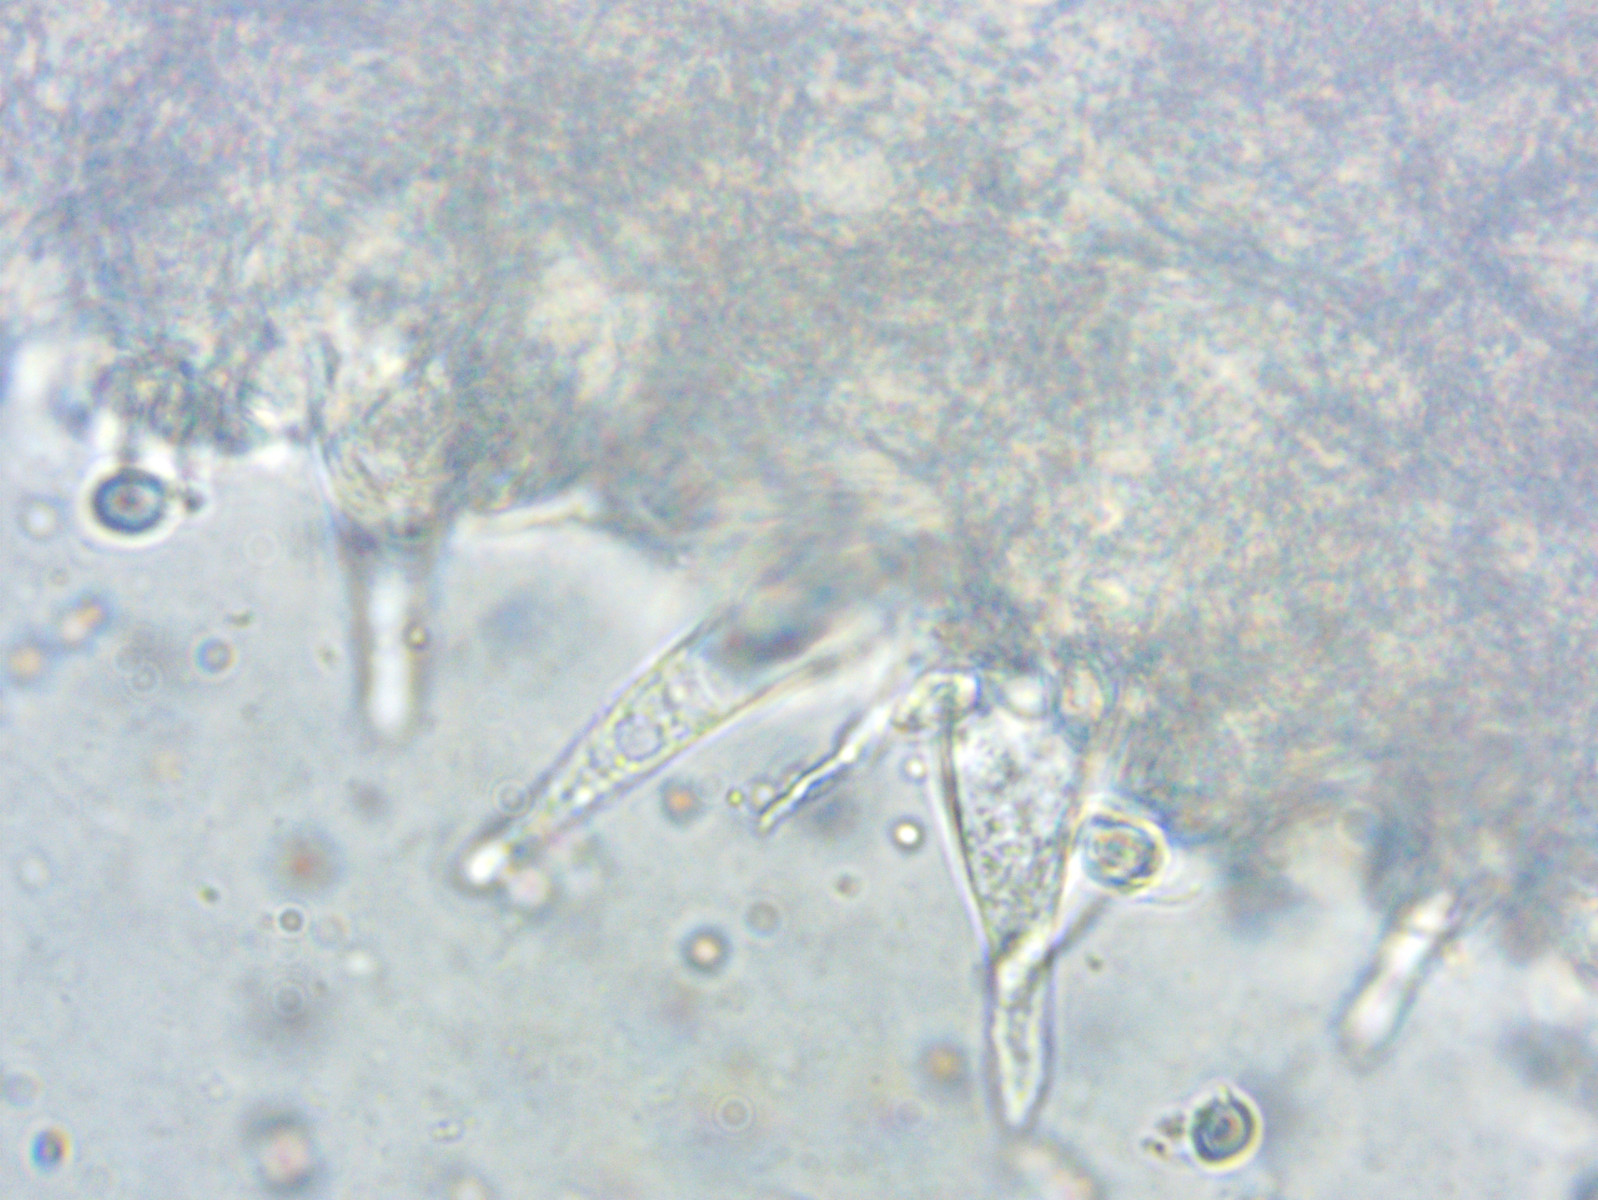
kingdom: Fungi
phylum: Basidiomycota
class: Agaricomycetes
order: Agaricales
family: Mycenaceae
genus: Mycena
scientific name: Mycena galopus
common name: hvidmælket huesvamp
